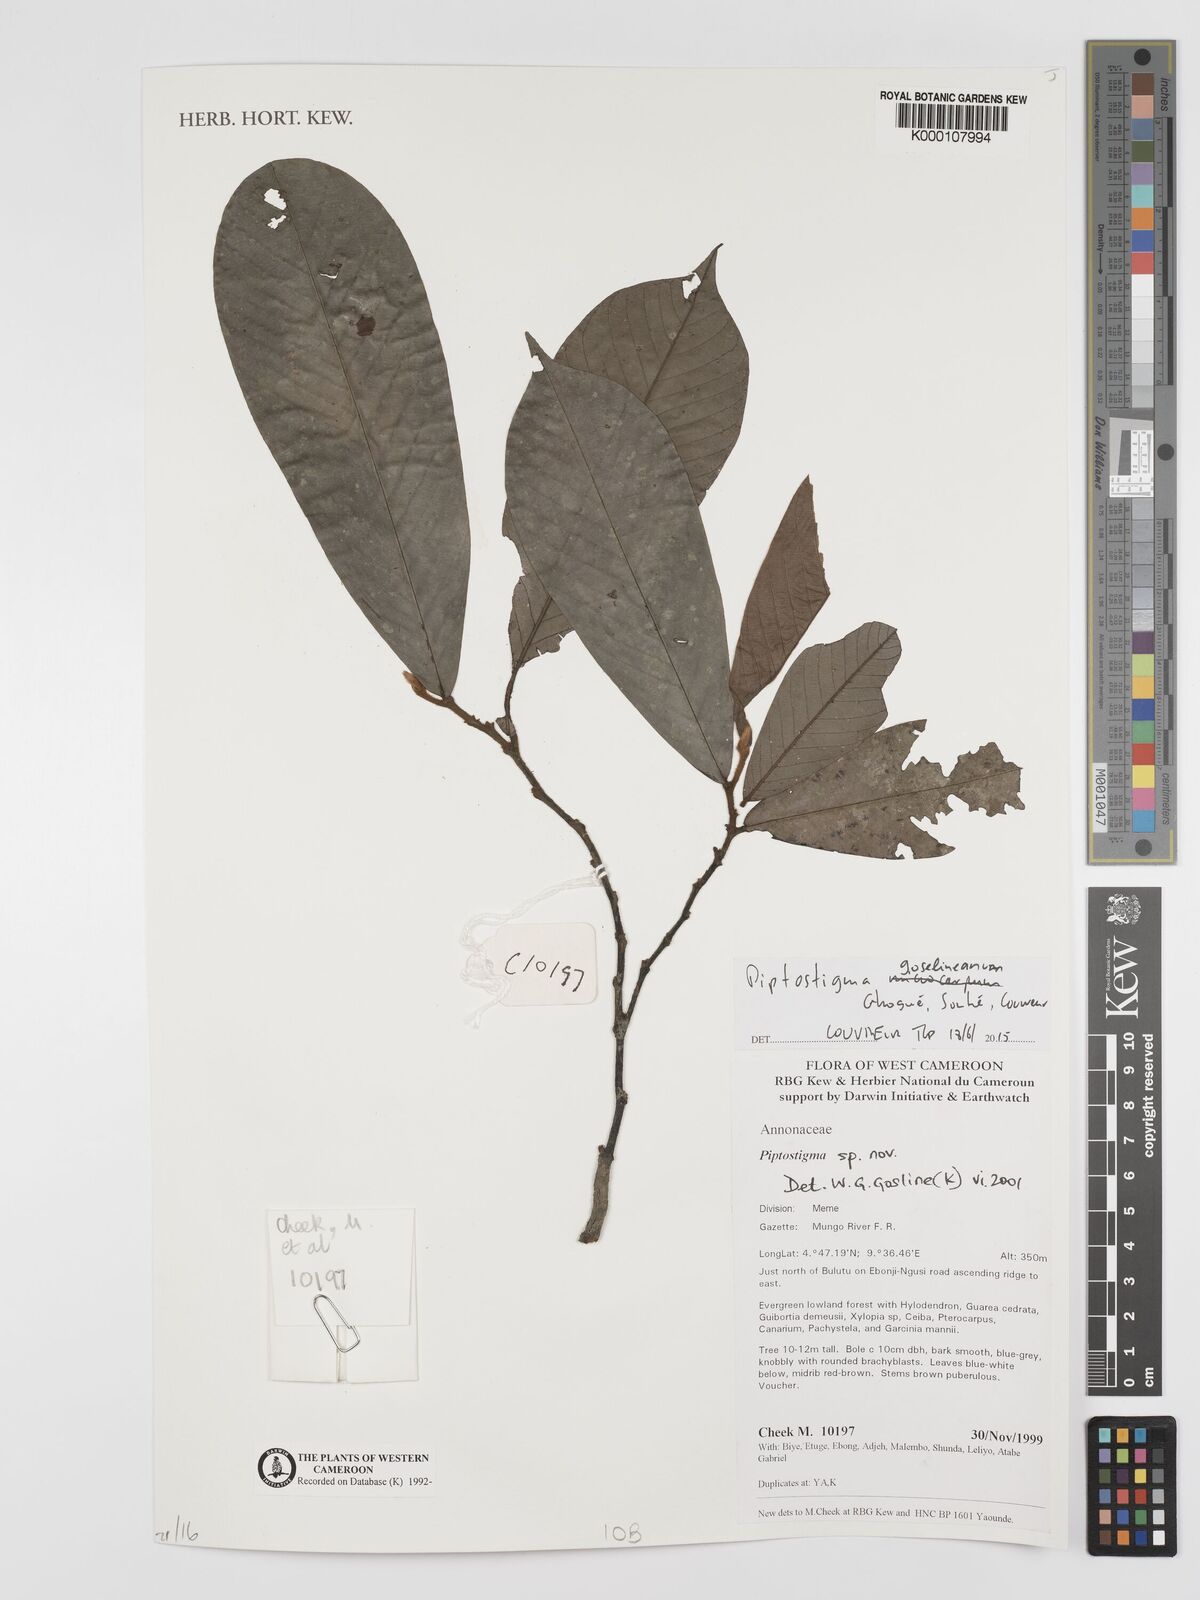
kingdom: Plantae
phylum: Tracheophyta
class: Magnoliopsida
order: Magnoliales
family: Annonaceae
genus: Piptostigma
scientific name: Piptostigma
